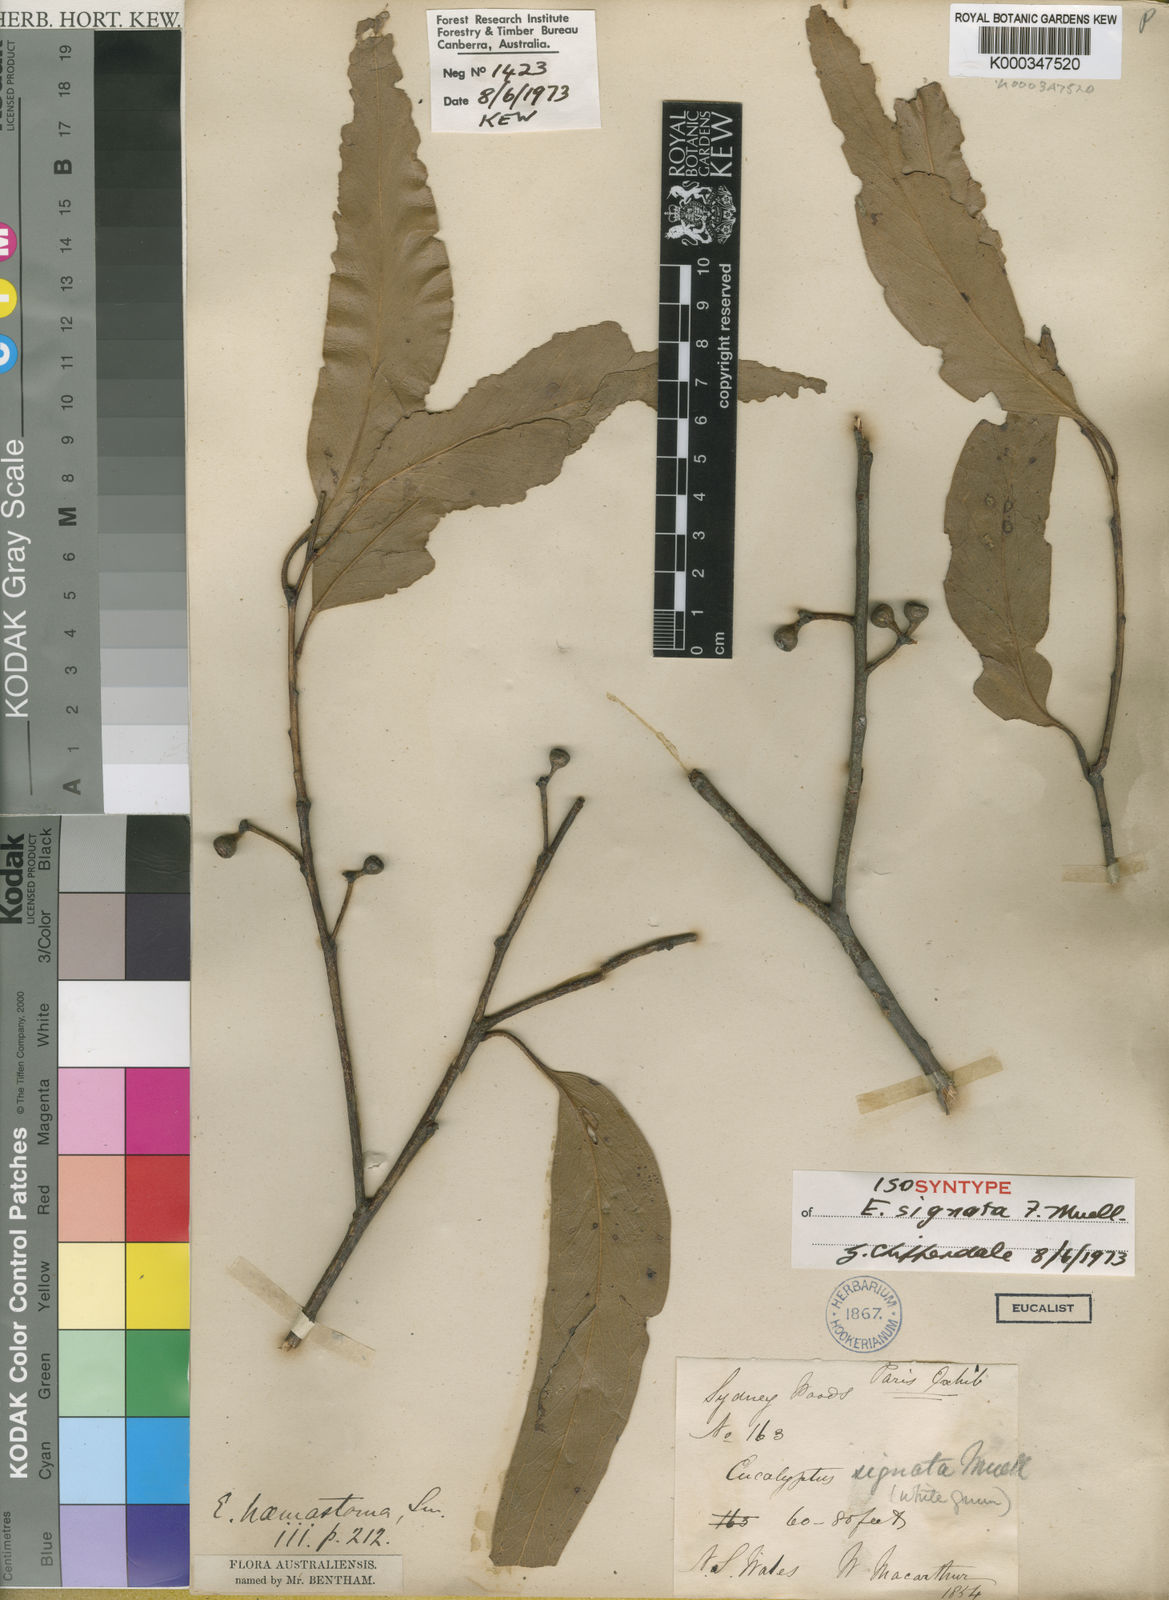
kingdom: Plantae
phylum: Tracheophyta
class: Magnoliopsida
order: Myrtales
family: Myrtaceae
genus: Eucalyptus
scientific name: Eucalyptus signata
